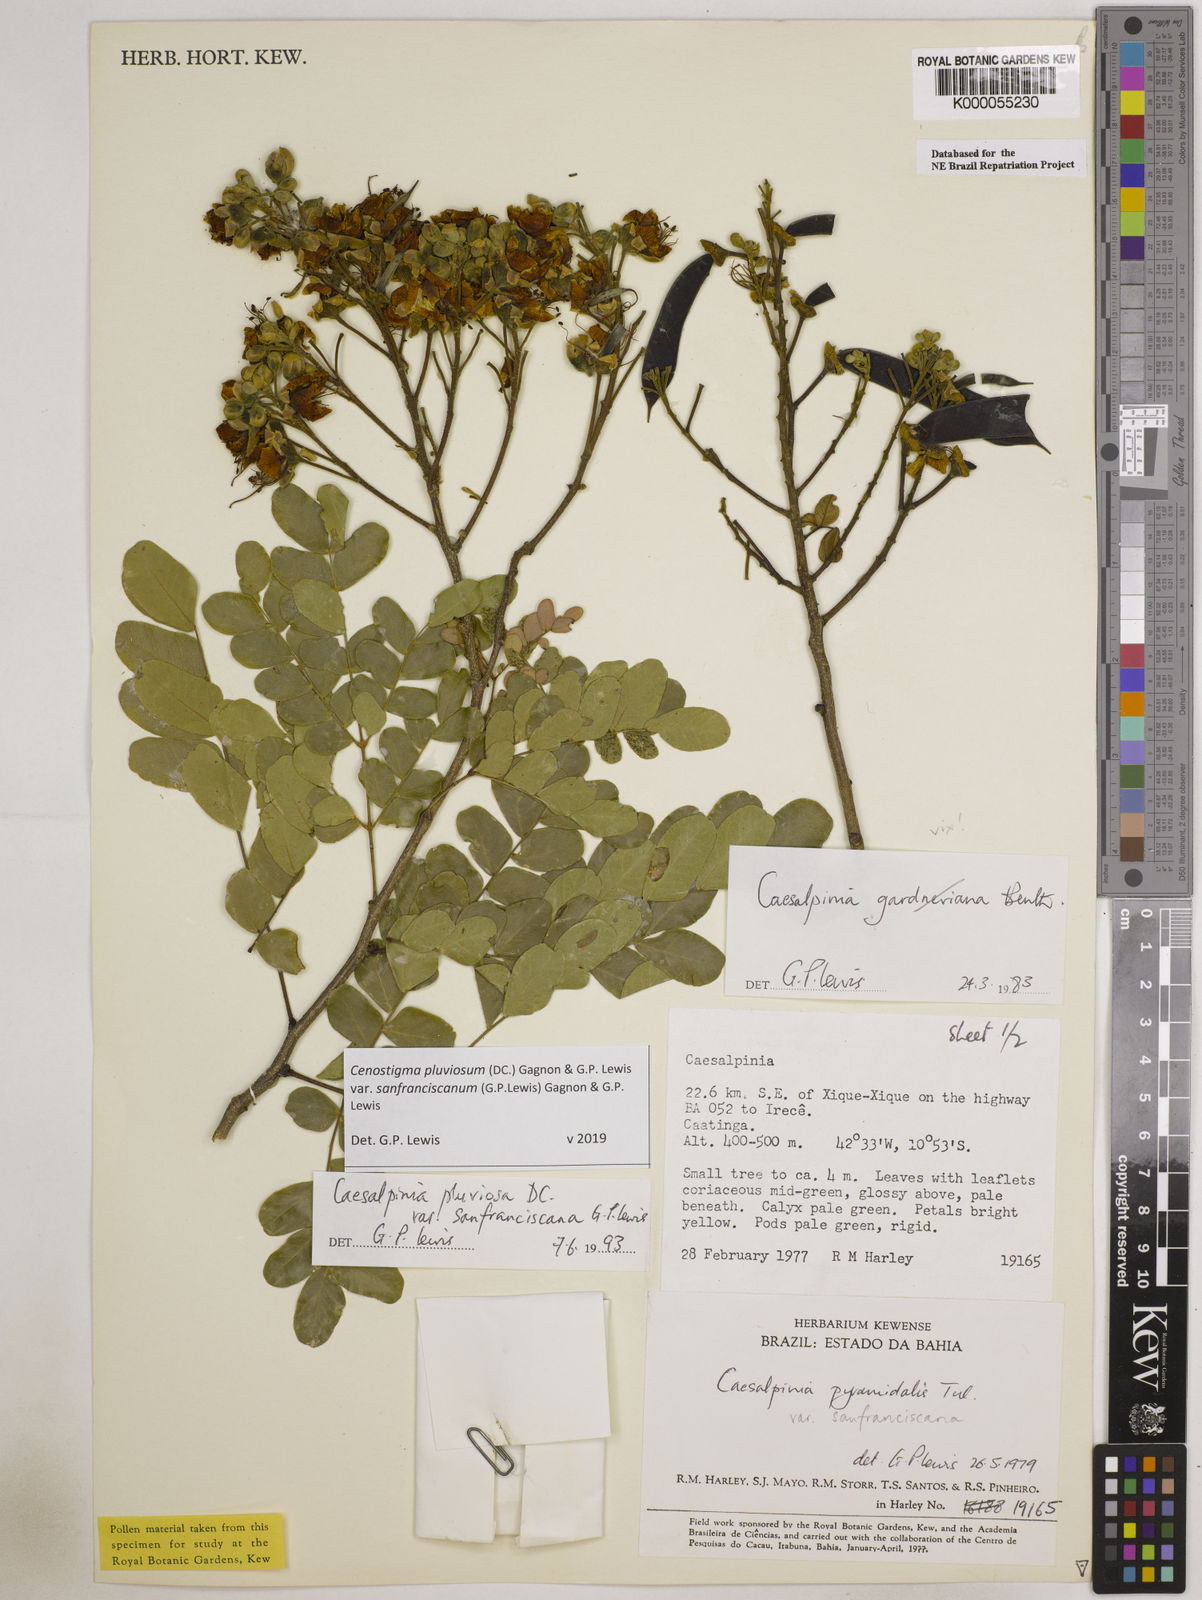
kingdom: Plantae
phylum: Tracheophyta
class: Magnoliopsida
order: Fabales
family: Fabaceae
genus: Cenostigma
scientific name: Cenostigma pluviosum
